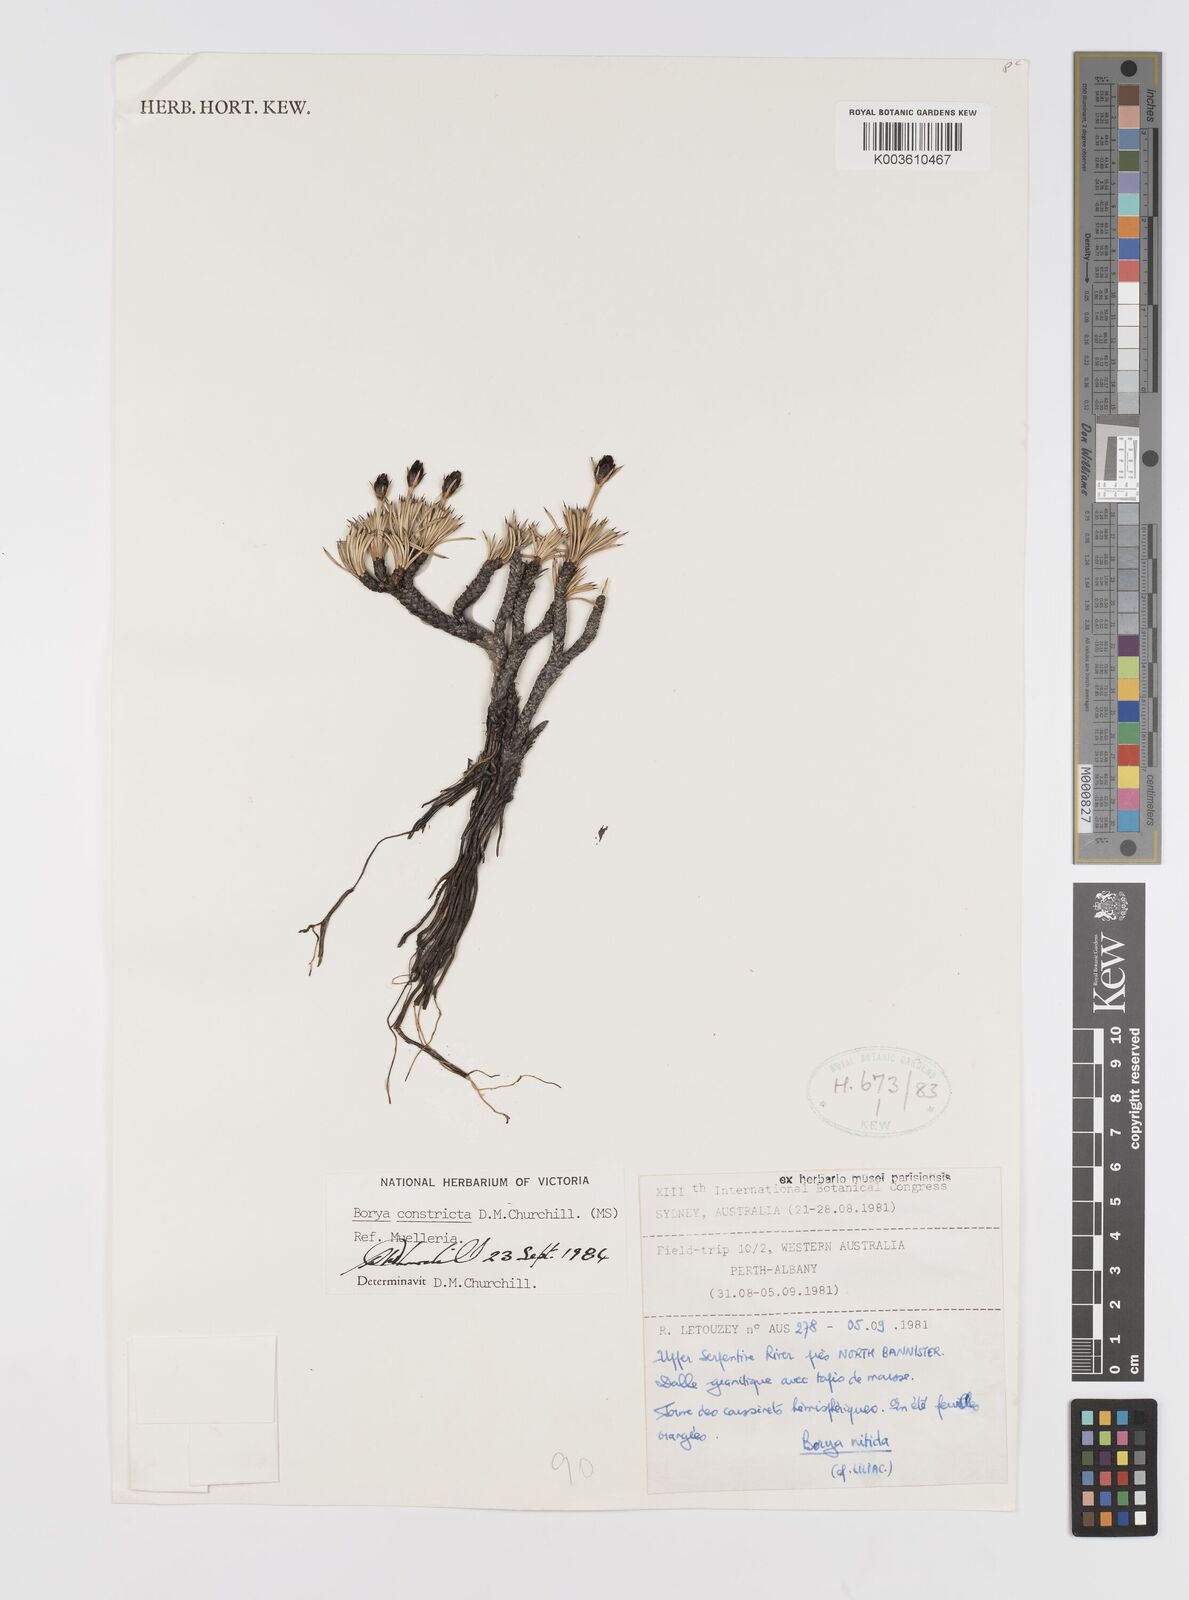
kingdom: Plantae
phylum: Tracheophyta
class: Liliopsida
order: Asparagales
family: Boryaceae
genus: Borya
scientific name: Borya constricta
